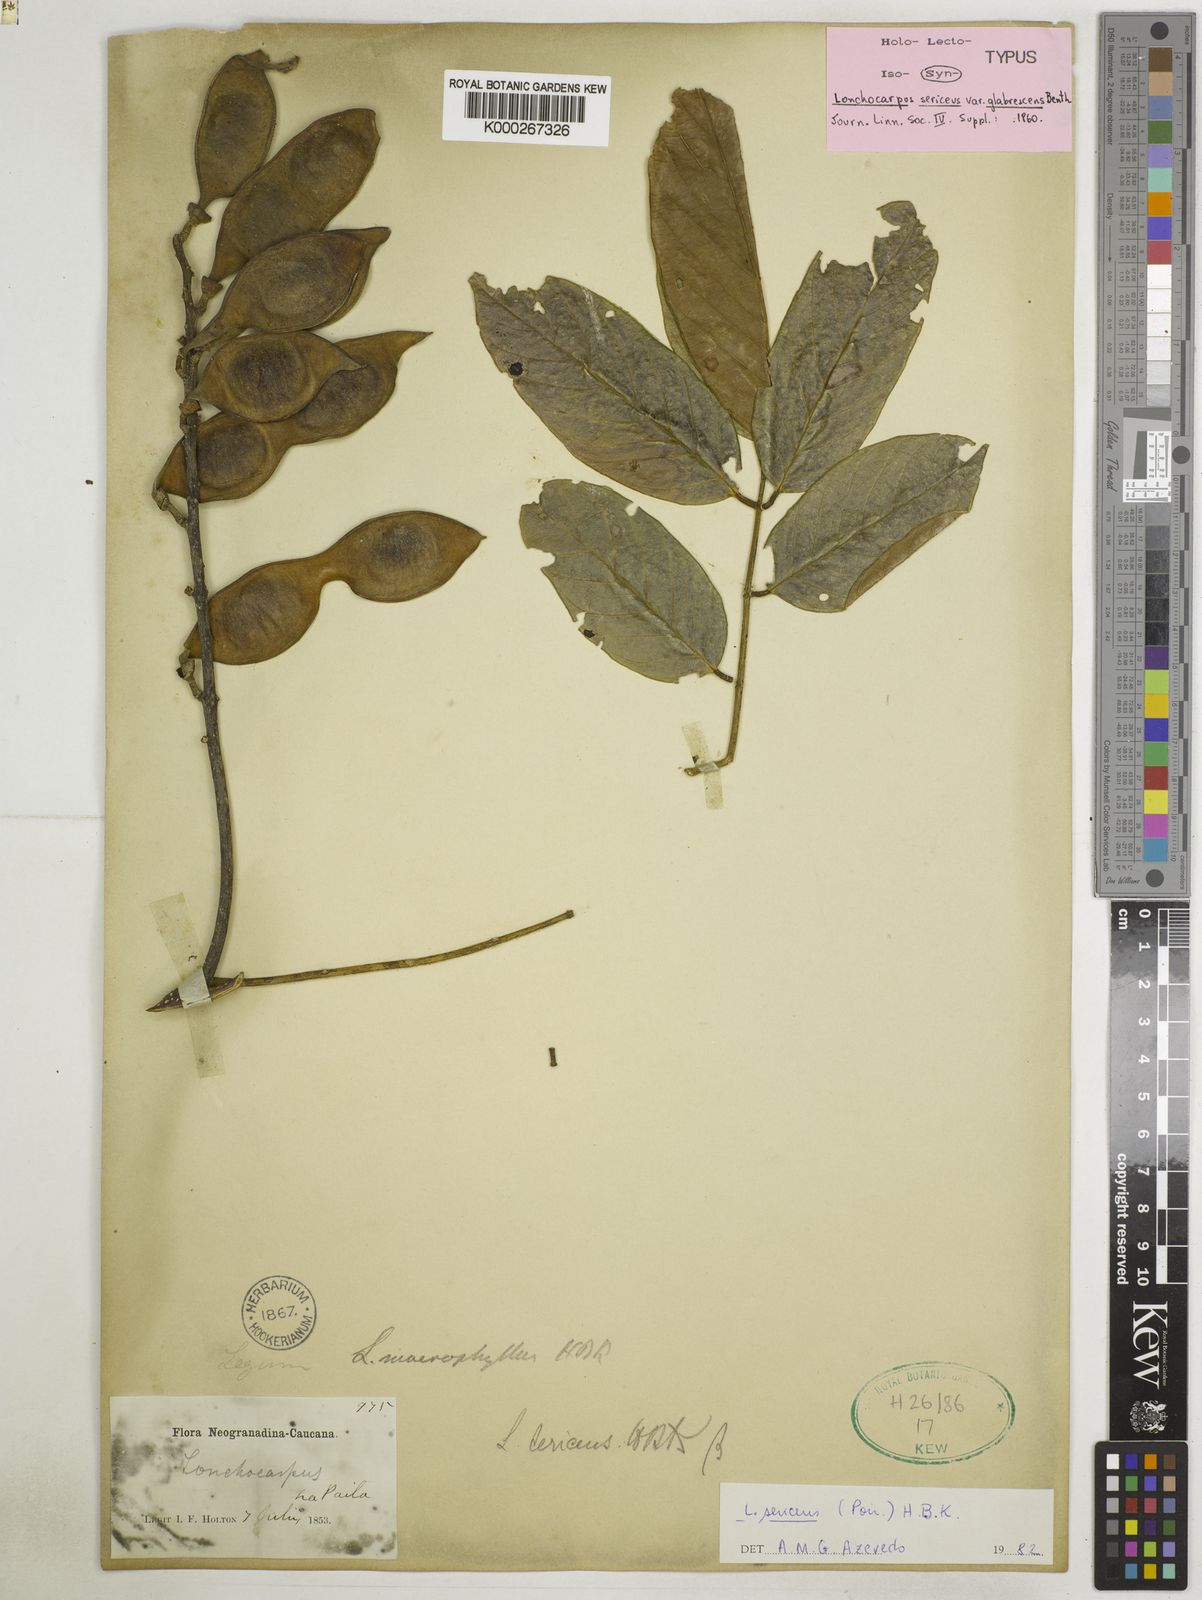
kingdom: Plantae
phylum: Tracheophyta
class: Magnoliopsida
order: Fabales
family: Fabaceae
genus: Lonchocarpus
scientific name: Lonchocarpus sericeus
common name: Savonette
